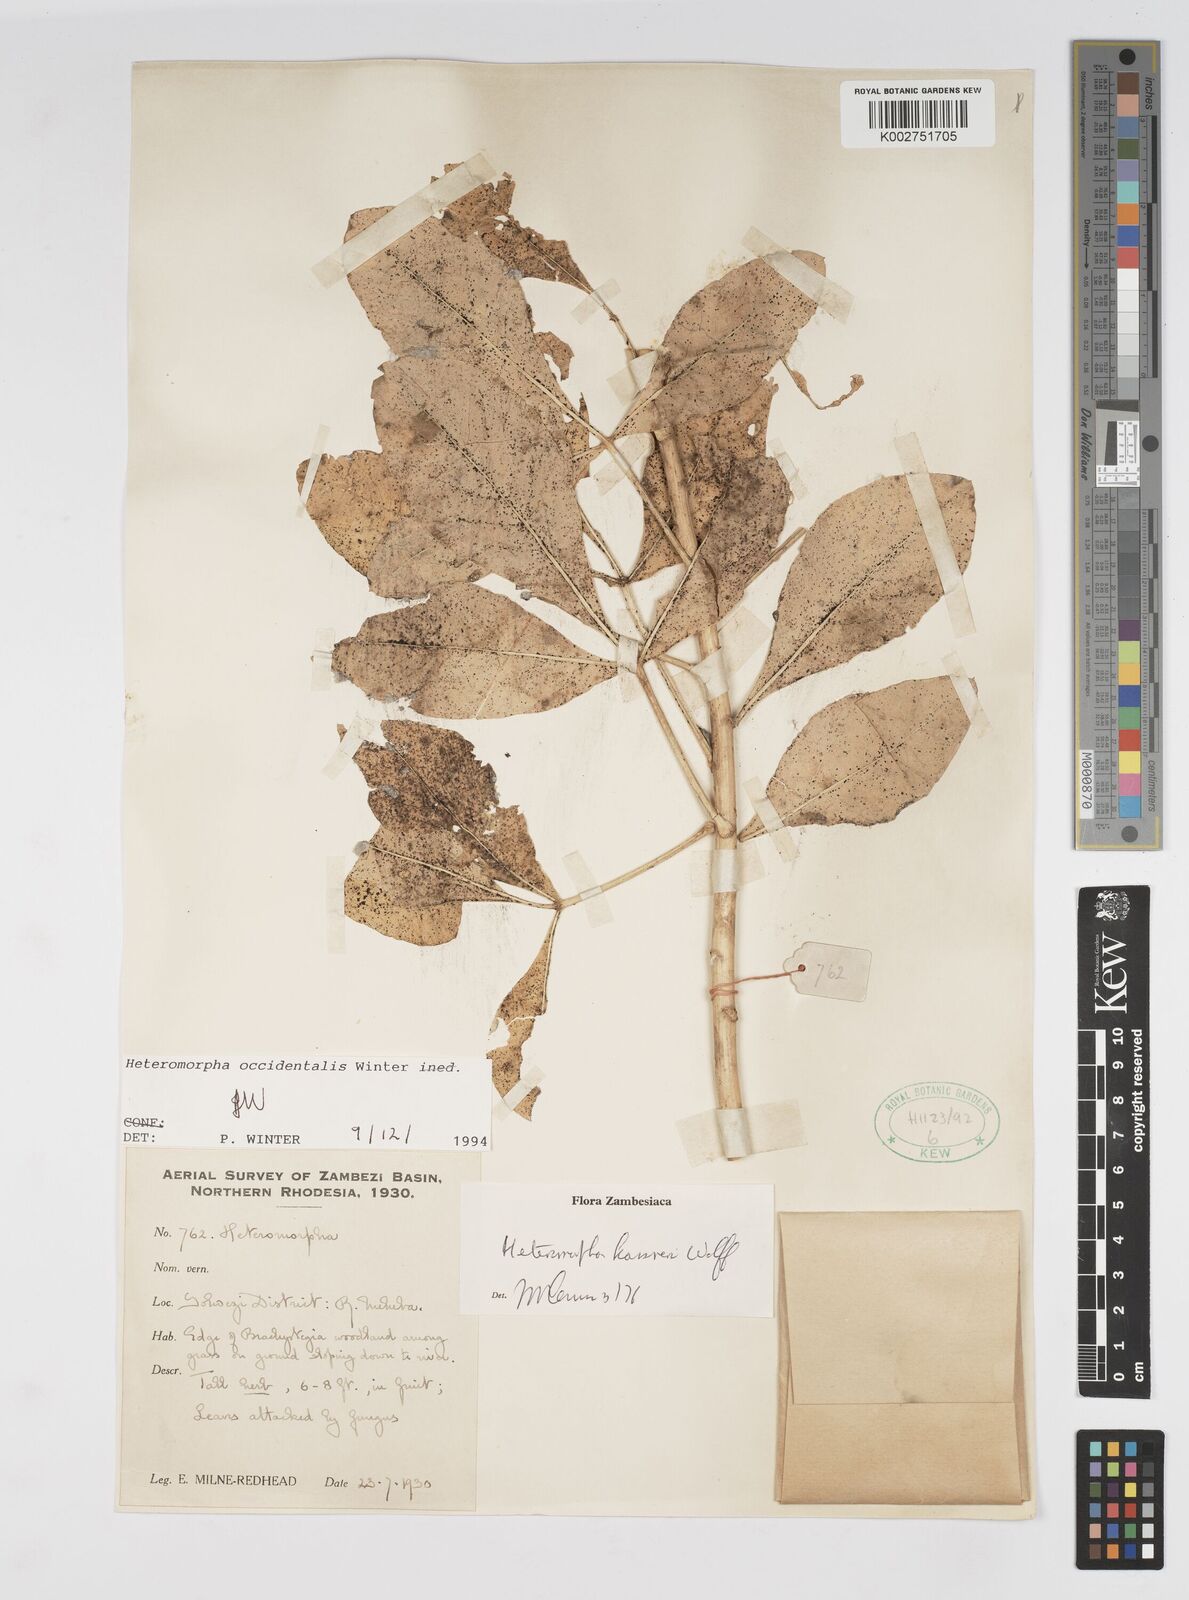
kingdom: Plantae
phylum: Tracheophyta
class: Magnoliopsida
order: Apiales
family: Apiaceae
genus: Heteromorpha
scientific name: Heteromorpha occidentalis
